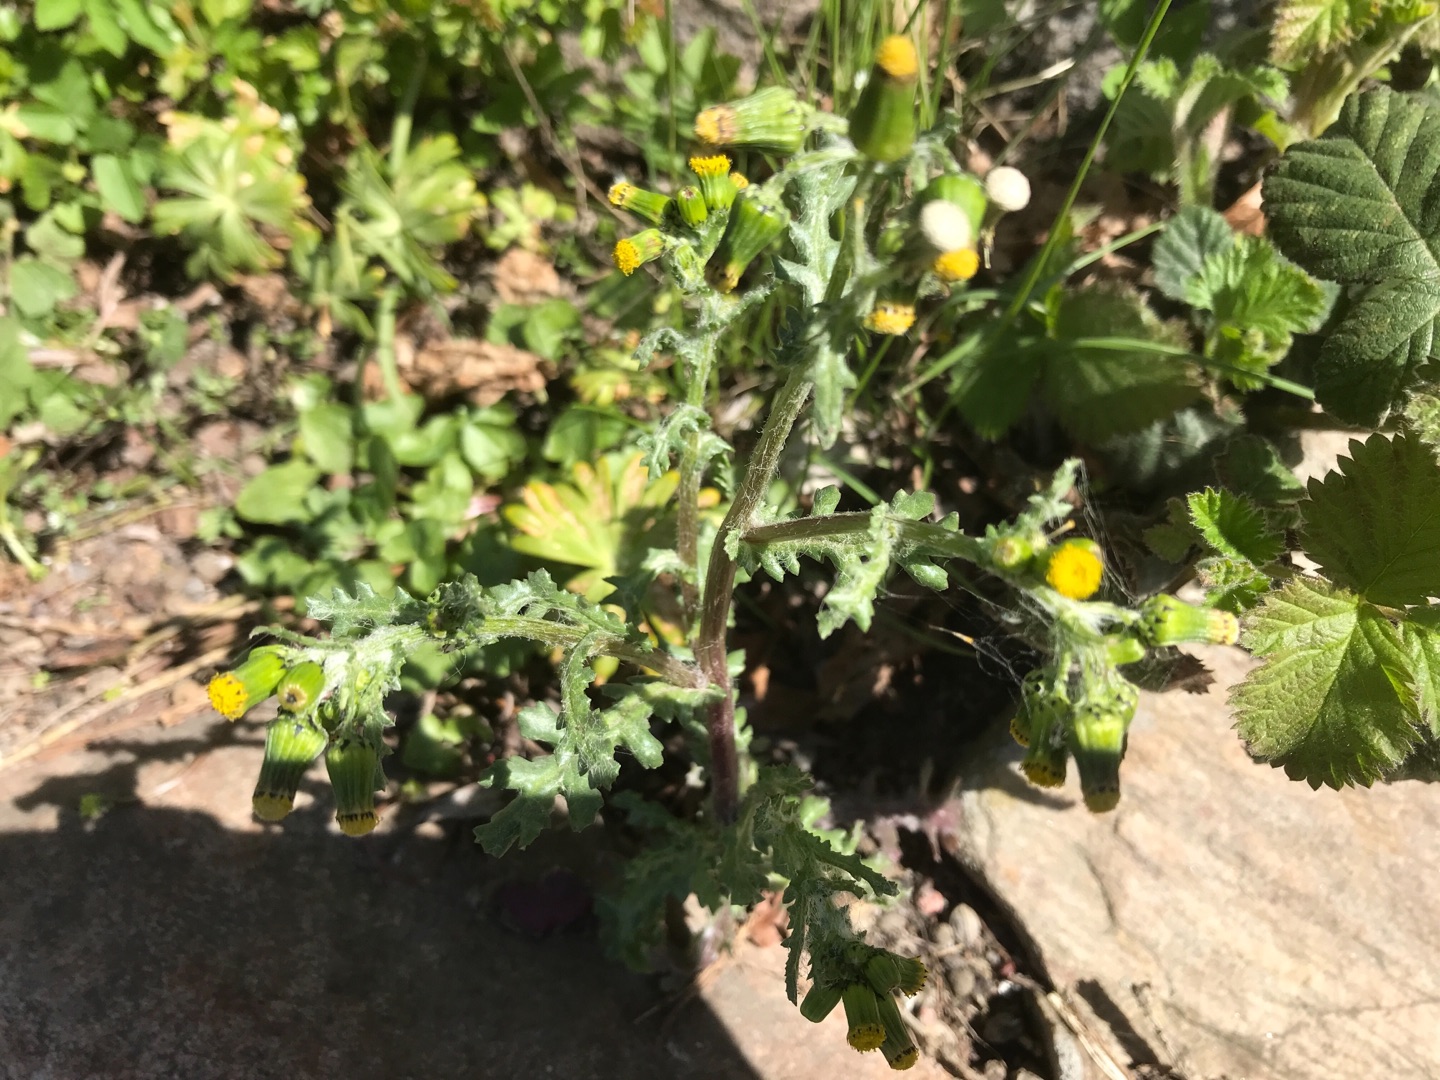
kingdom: Plantae
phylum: Tracheophyta
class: Magnoliopsida
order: Asterales
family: Asteraceae
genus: Senecio
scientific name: Senecio vulgaris
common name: Almindelig brandbæger
